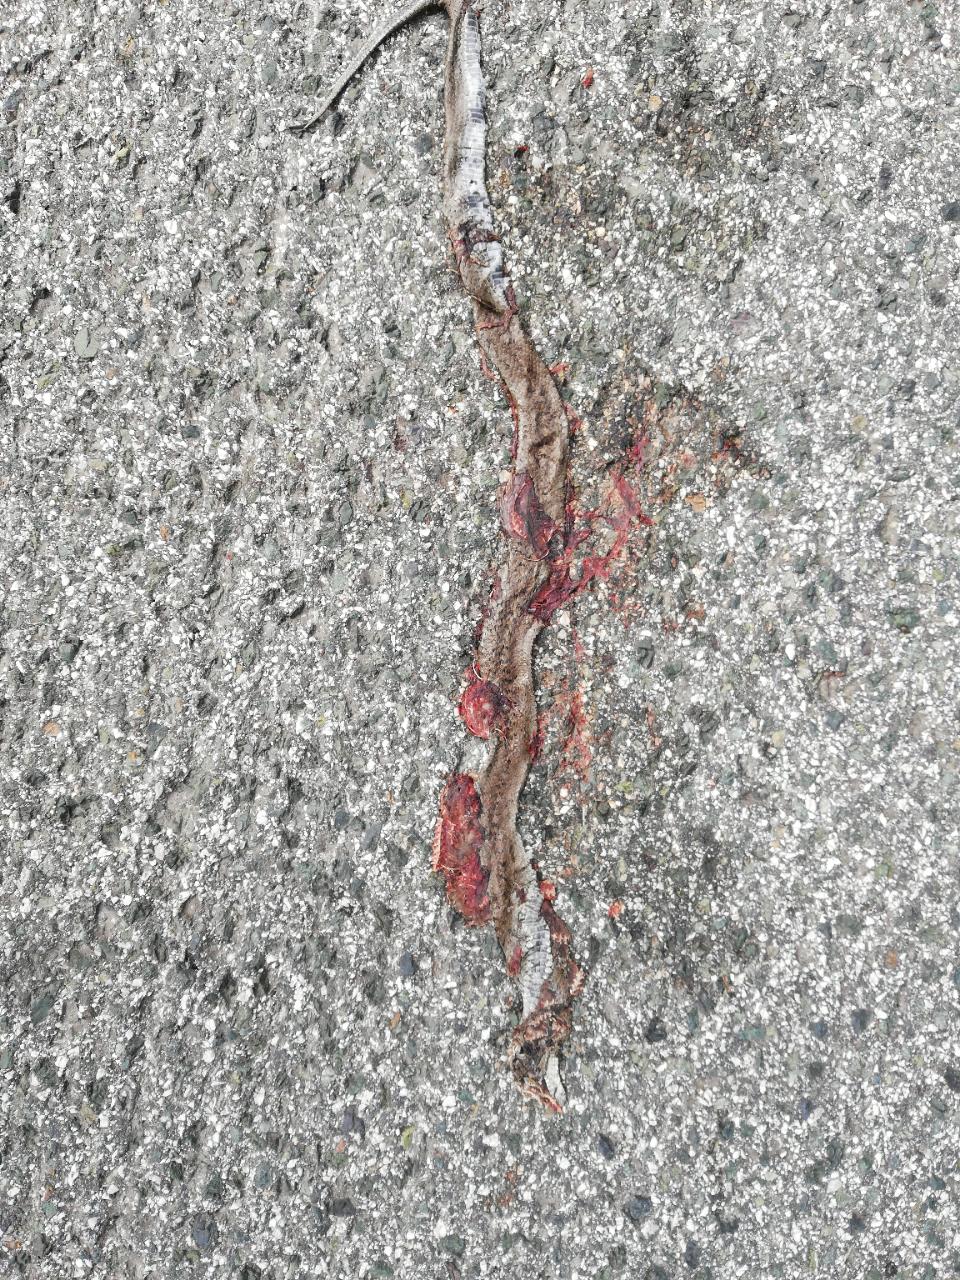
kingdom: Animalia
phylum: Chordata
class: Squamata
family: Colubridae
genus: Coronella
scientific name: Coronella austriaca
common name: Smooth snake
